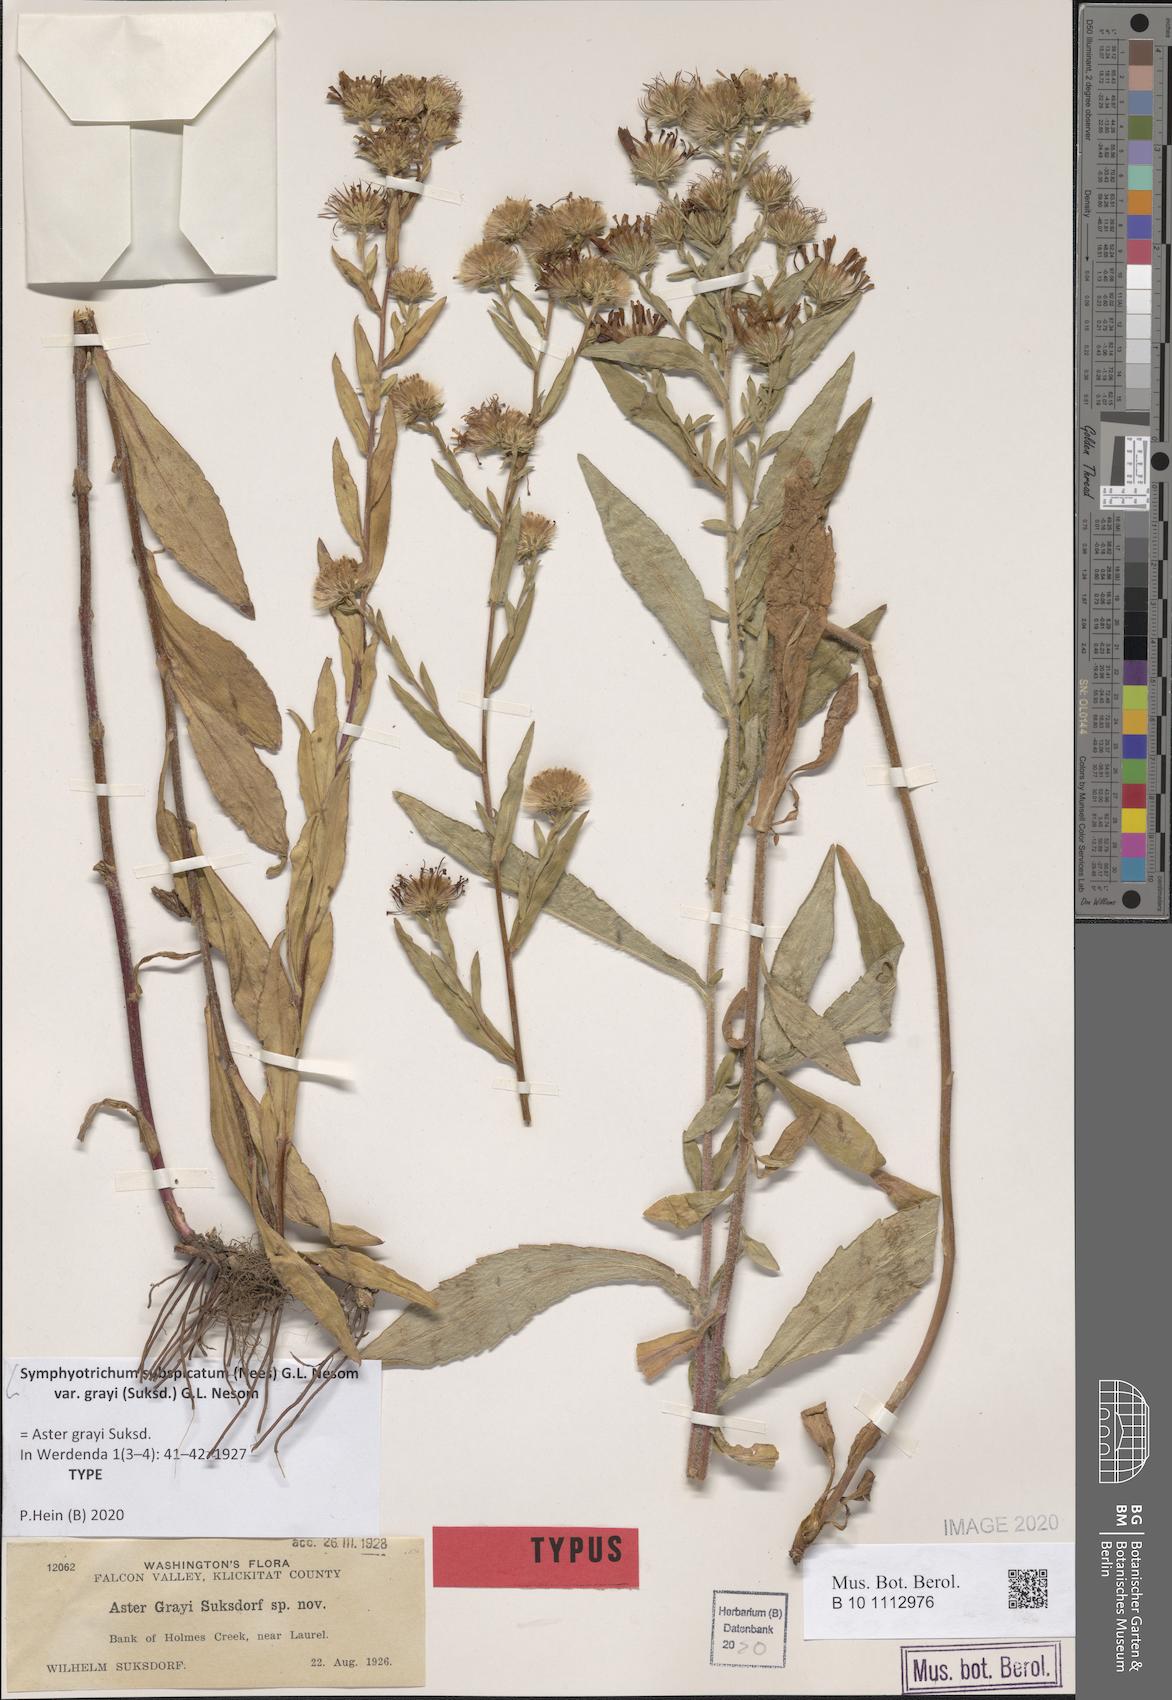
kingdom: Plantae
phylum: Tracheophyta
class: Magnoliopsida
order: Asterales
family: Asteraceae
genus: Symphyotrichum
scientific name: Symphyotrichum subspicatum
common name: Douglas' aster
